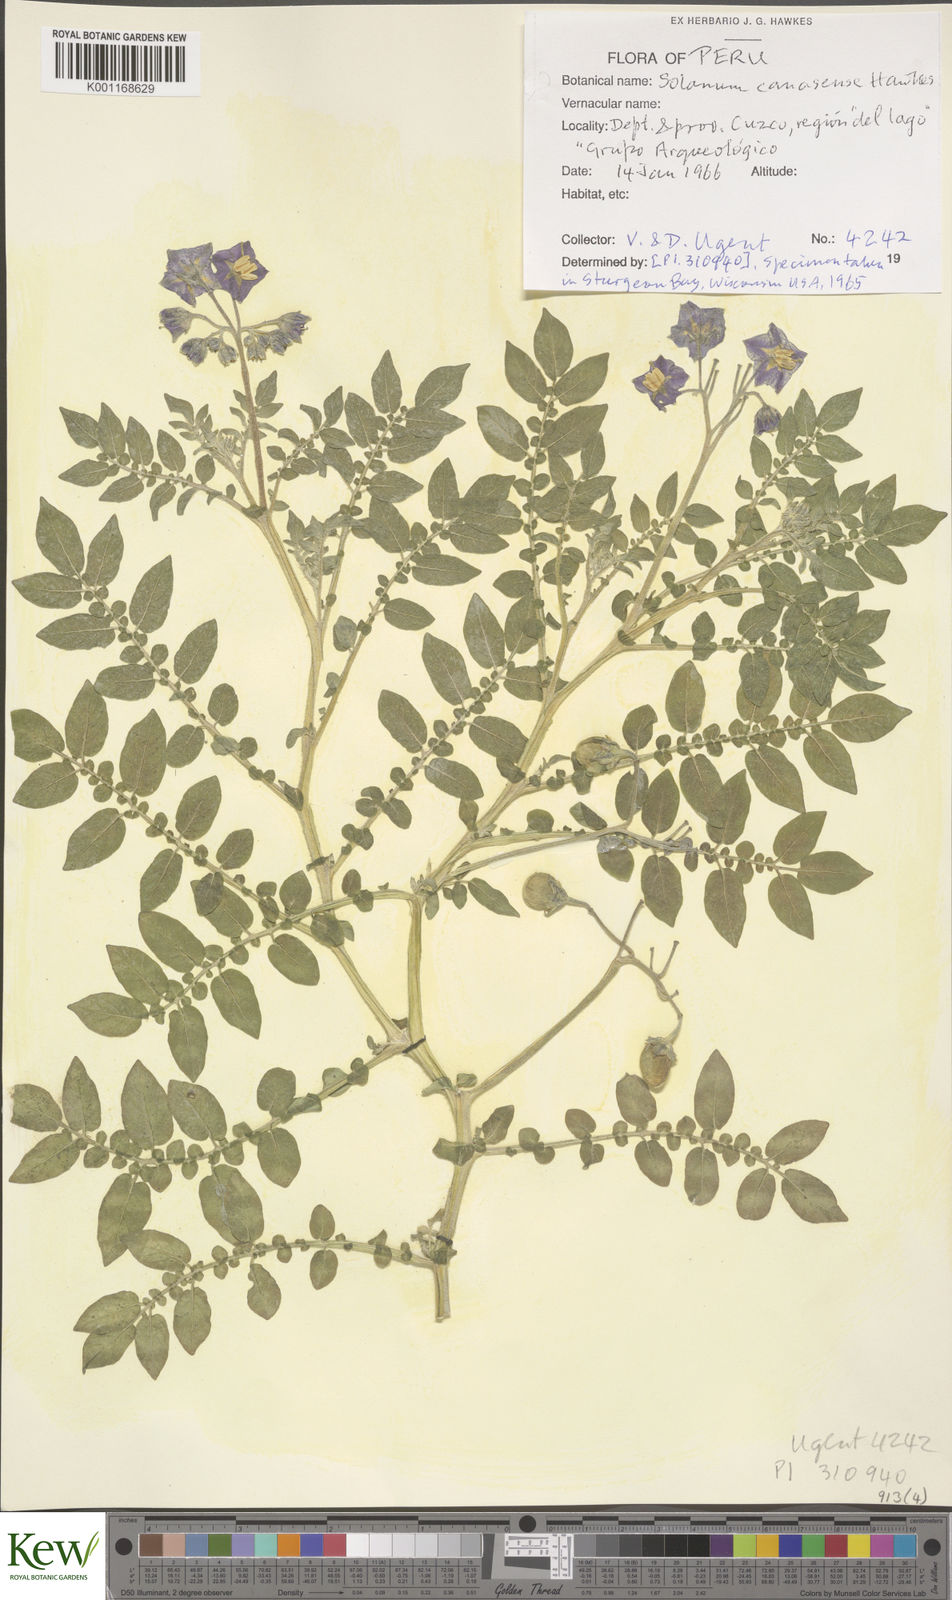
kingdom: Plantae
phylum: Tracheophyta
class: Magnoliopsida
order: Solanales
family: Solanaceae
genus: Solanum
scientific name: Solanum candolleanum
